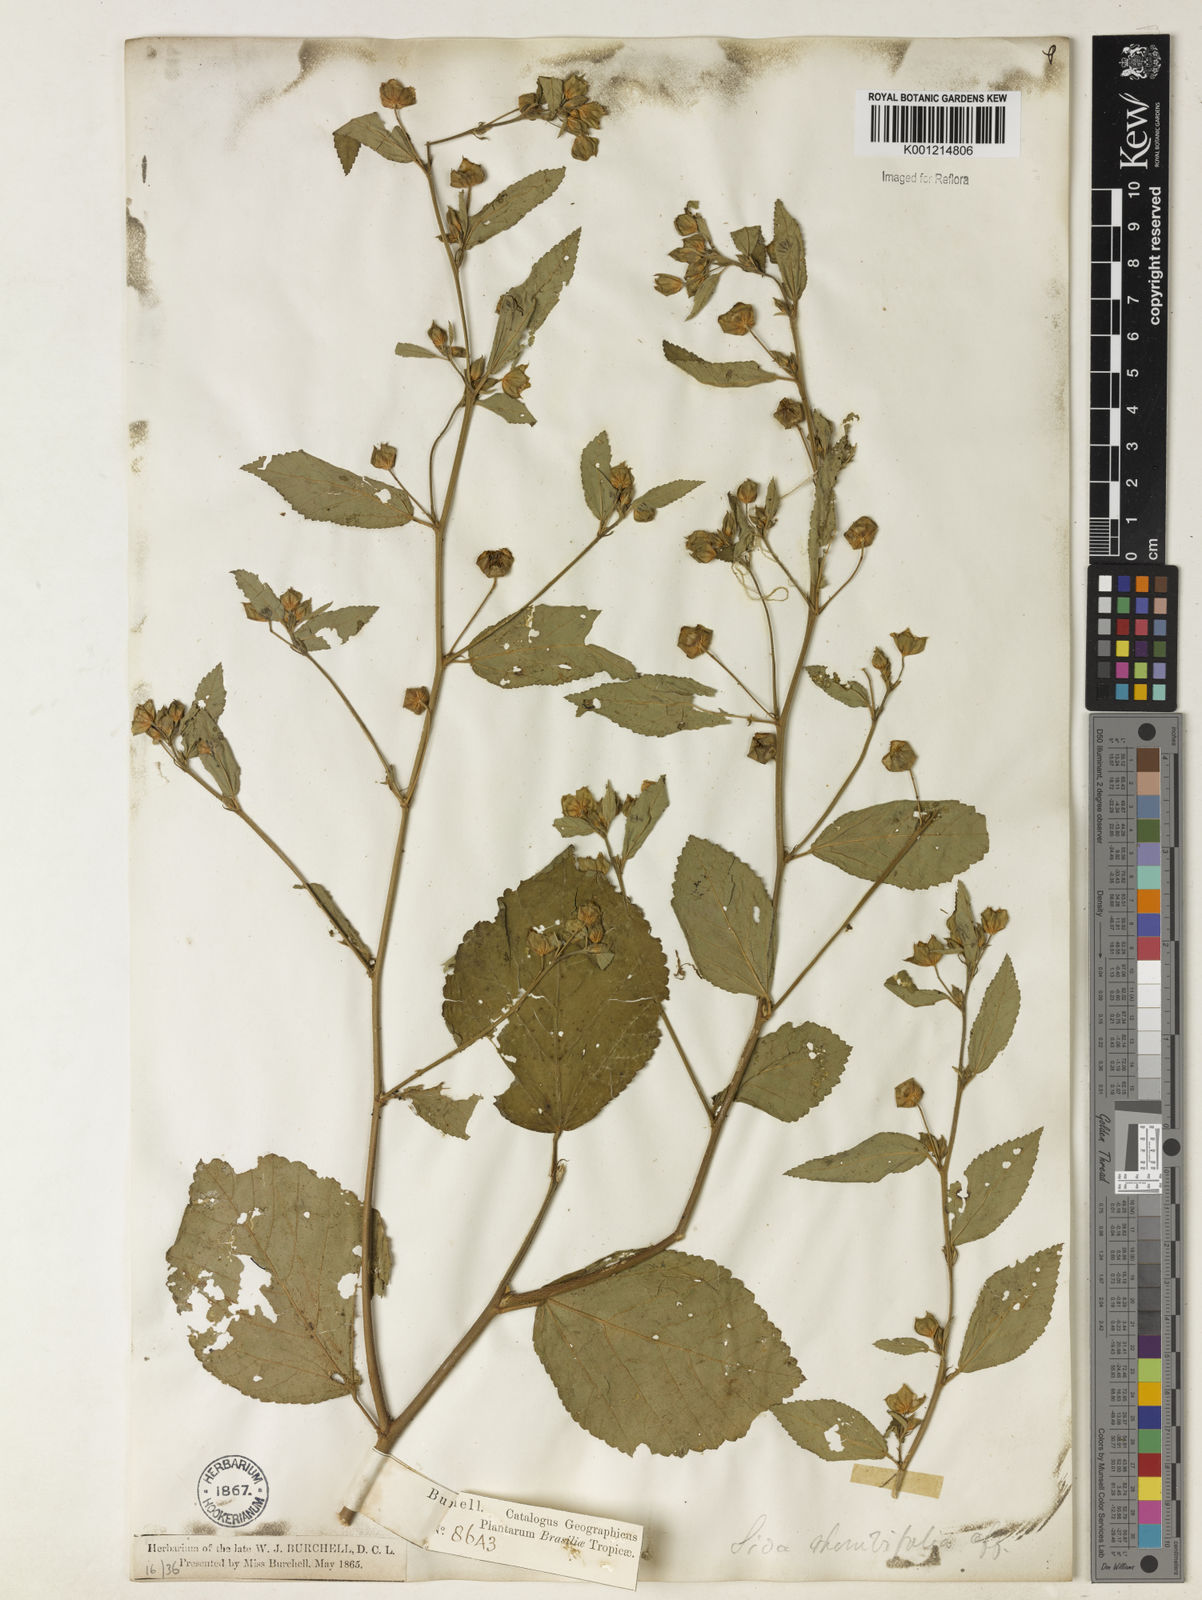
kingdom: Plantae
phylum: Tracheophyta
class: Magnoliopsida
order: Malvales
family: Malvaceae
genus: Sida
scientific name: Sida rhombifolia
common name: Queensland-hemp
